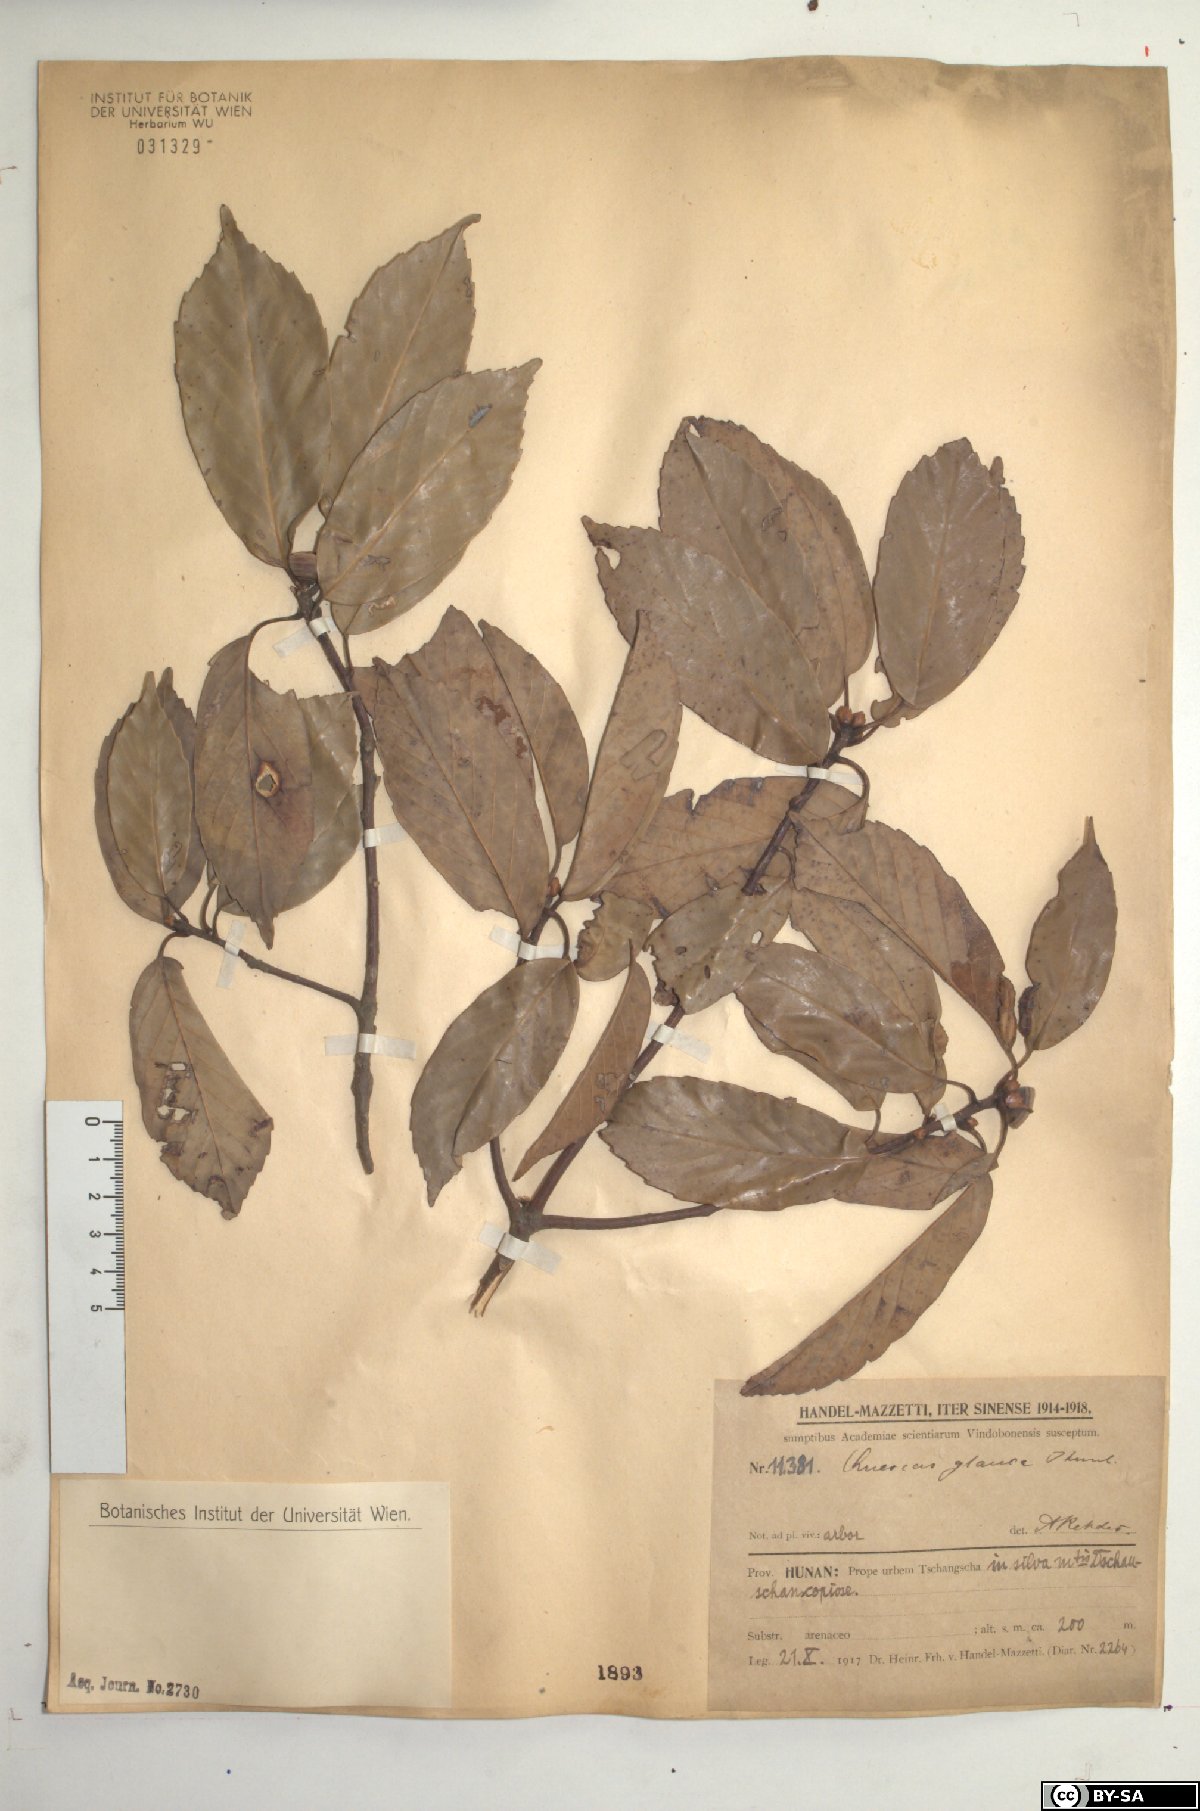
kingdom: Plantae
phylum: Tracheophyta
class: Magnoliopsida
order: Fagales
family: Fagaceae
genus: Quercus
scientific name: Quercus glauca
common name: Ring-cup oak
